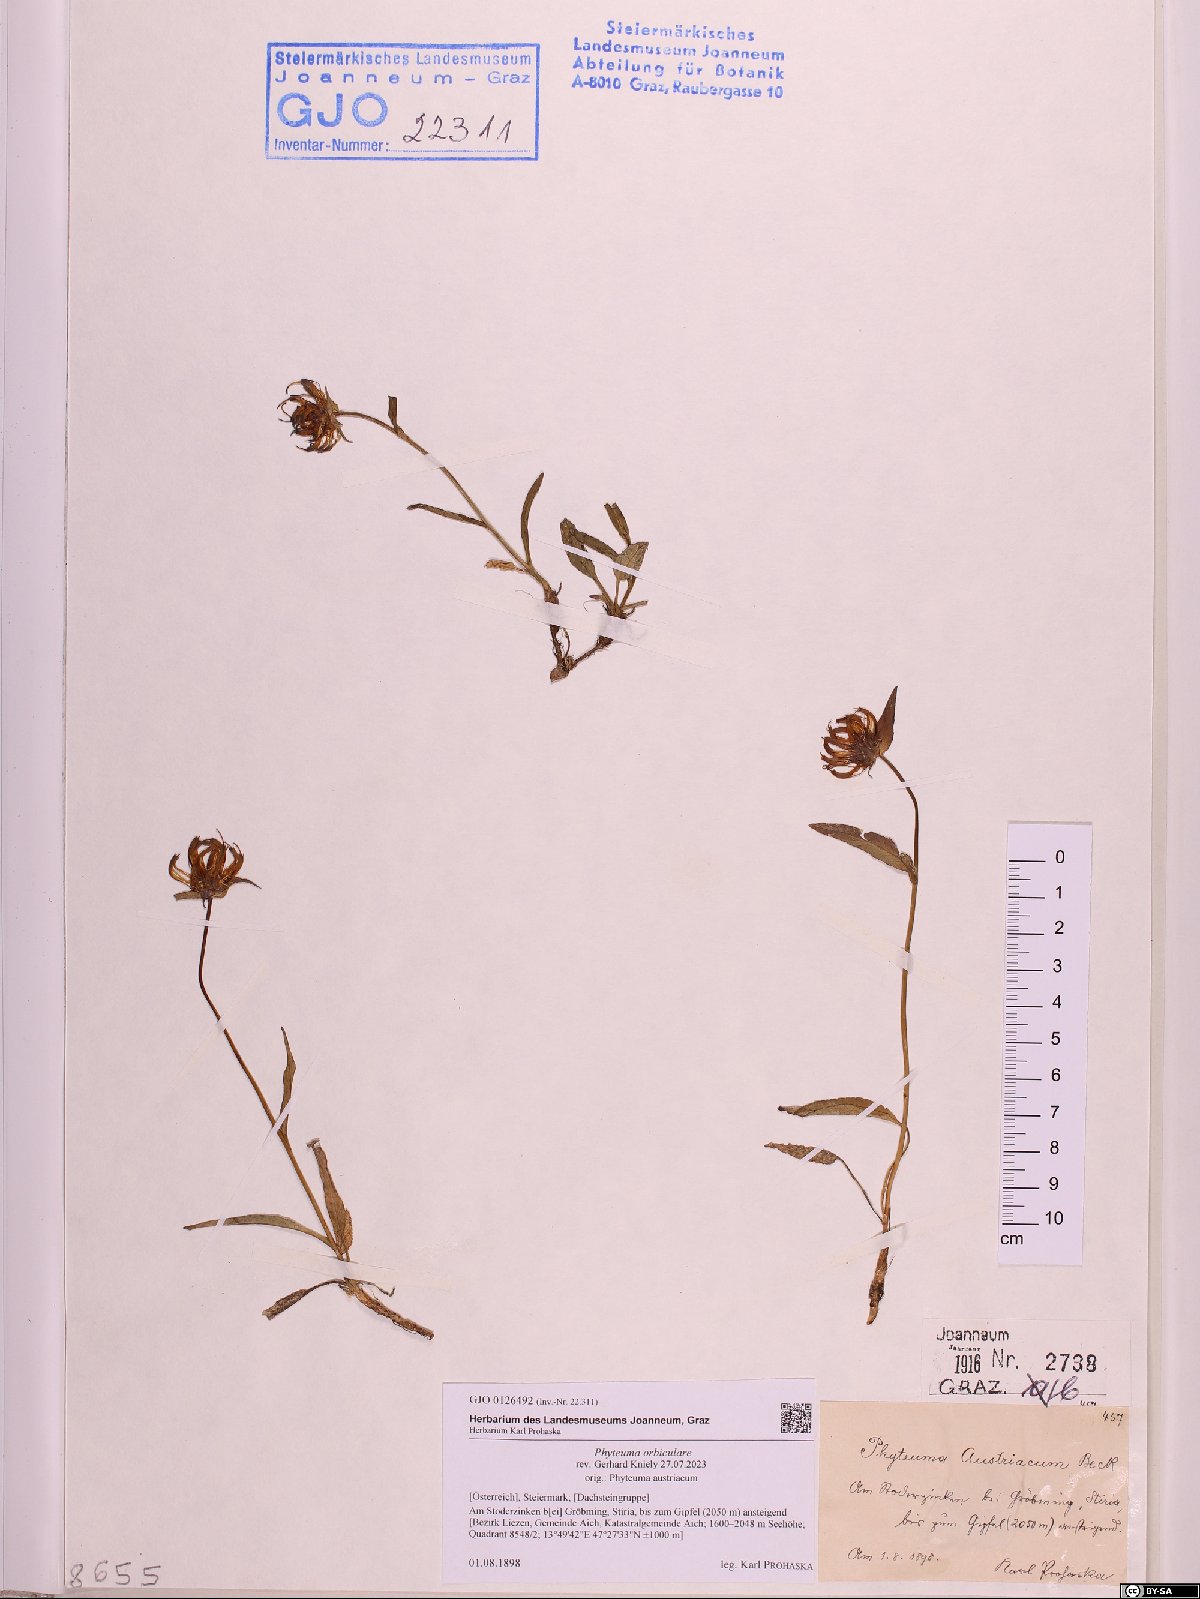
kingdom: Plantae
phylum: Tracheophyta
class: Magnoliopsida
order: Asterales
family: Campanulaceae
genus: Phyteuma
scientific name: Phyteuma orbiculare
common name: Round-headed rampion
